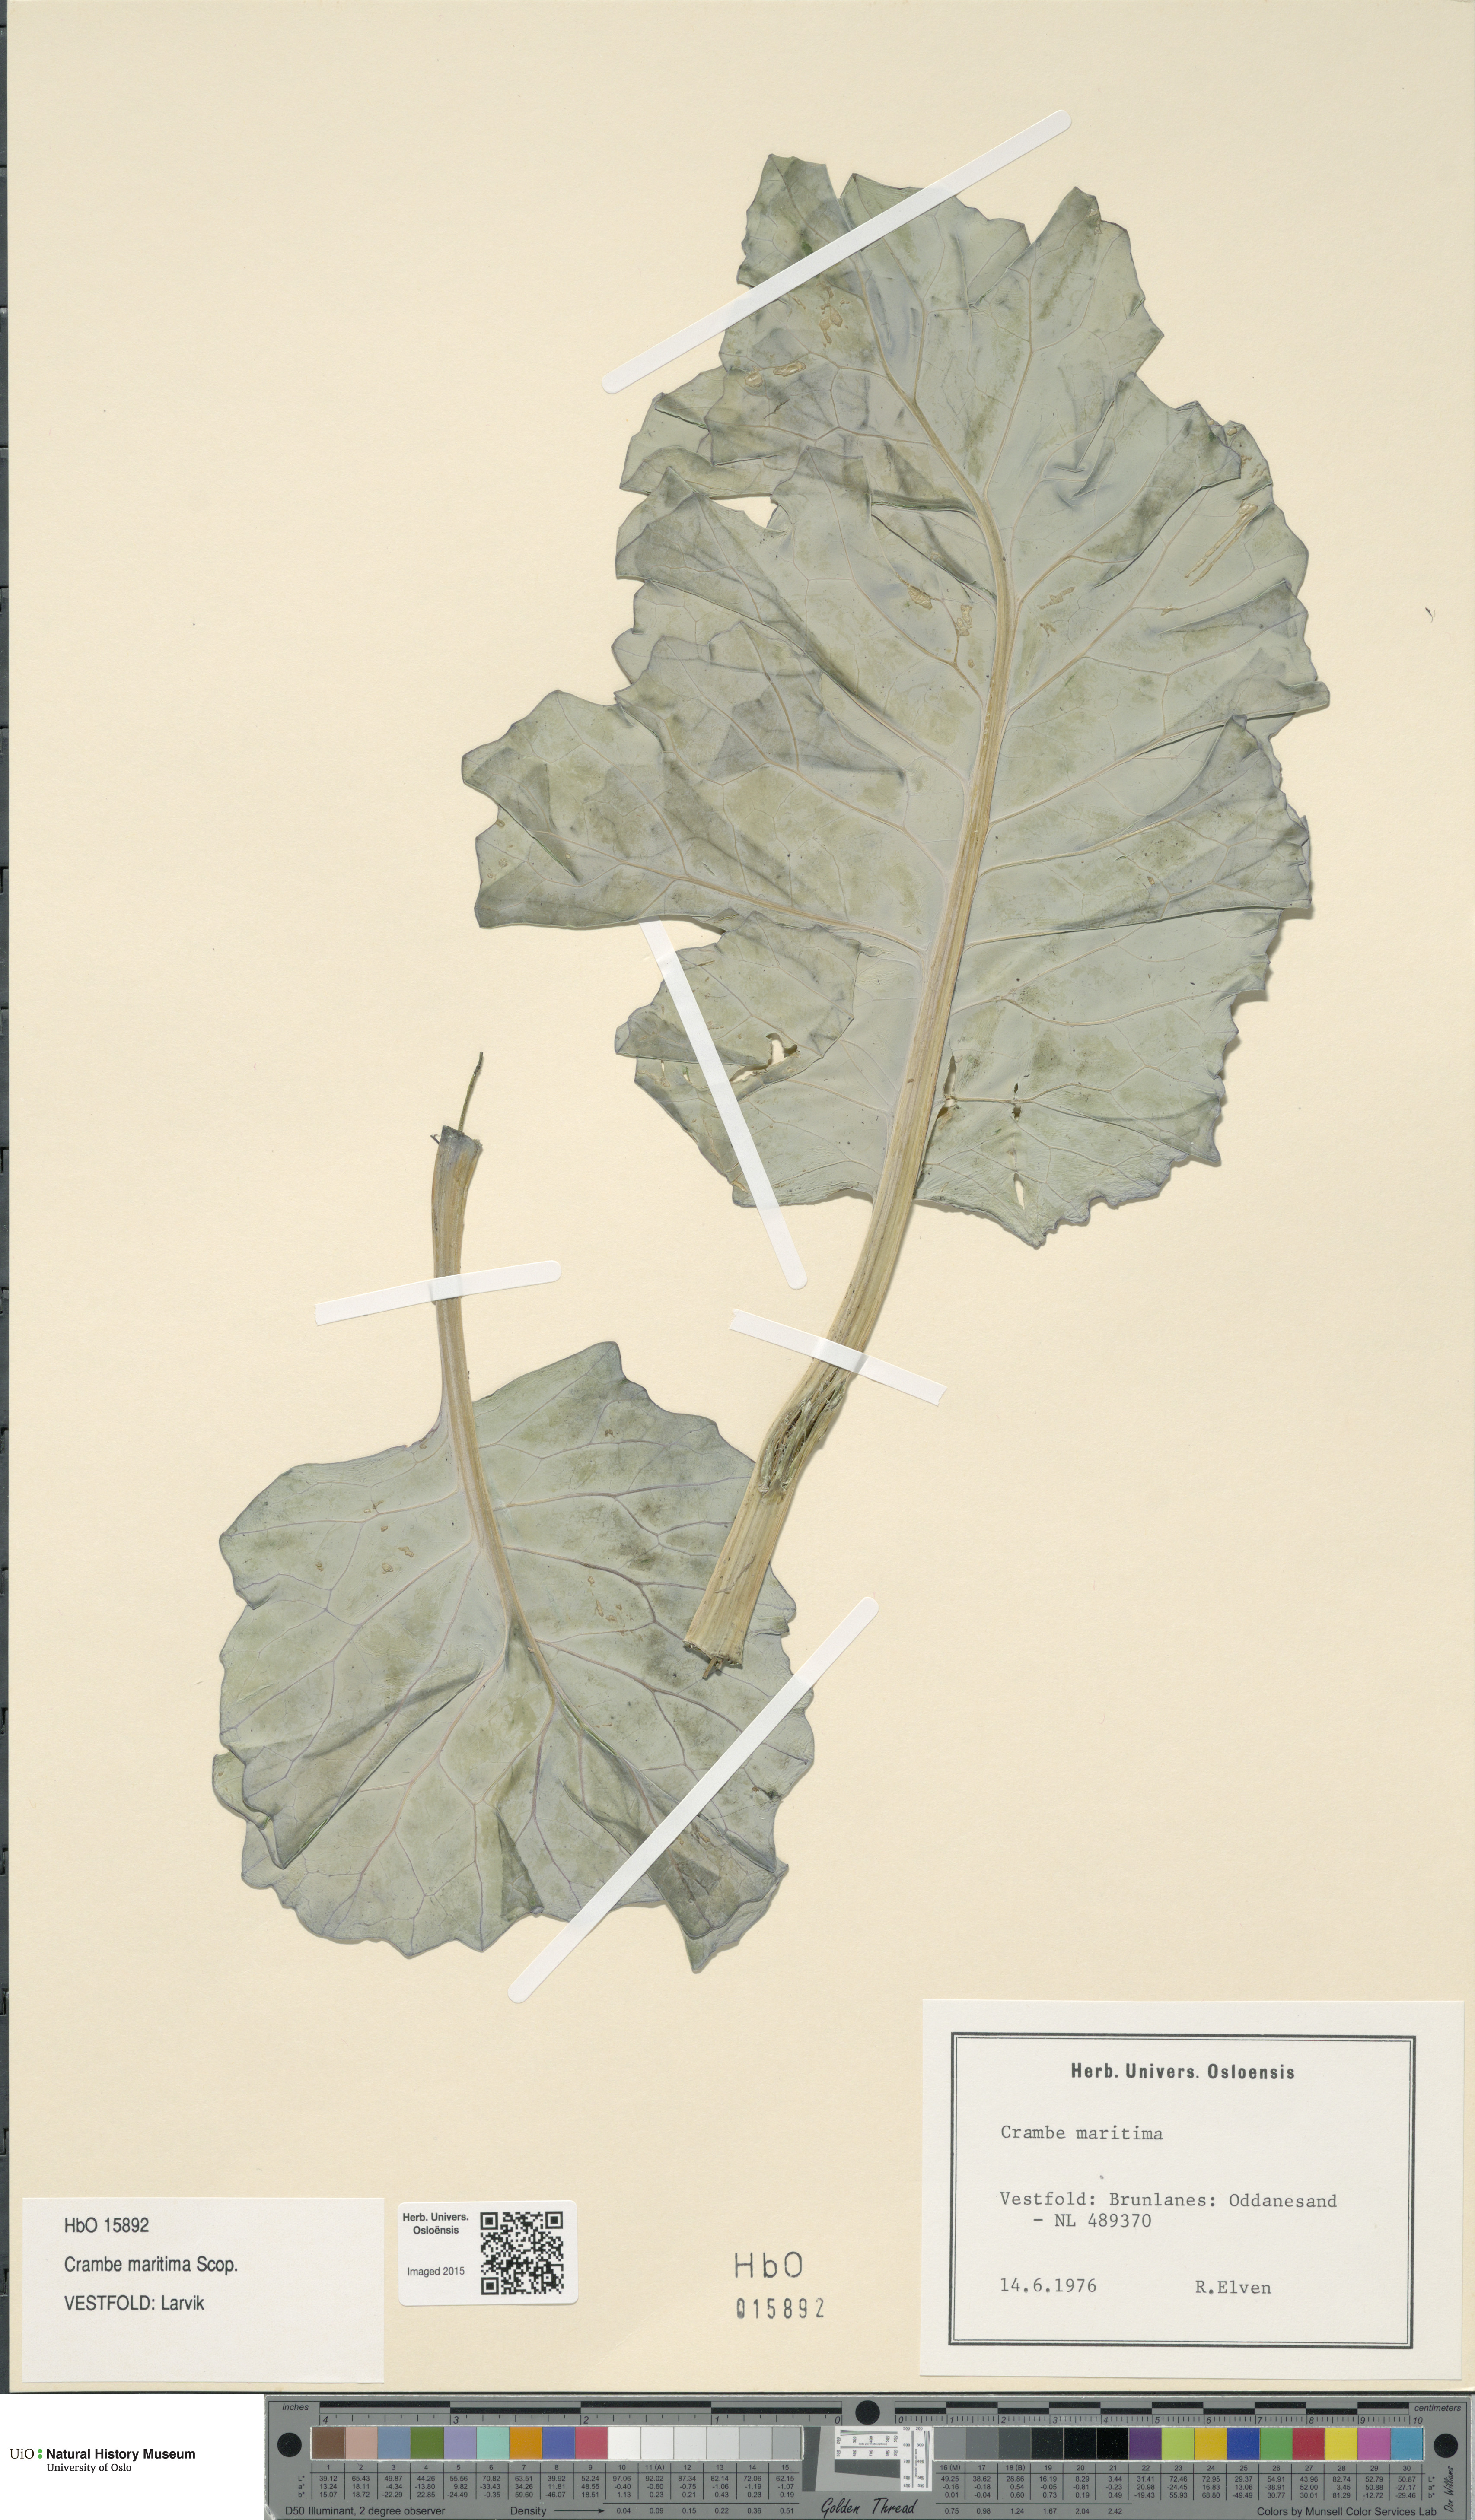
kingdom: Plantae
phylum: Tracheophyta
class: Magnoliopsida
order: Brassicales
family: Brassicaceae
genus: Crambe
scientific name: Crambe maritima
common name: Sea-kale
